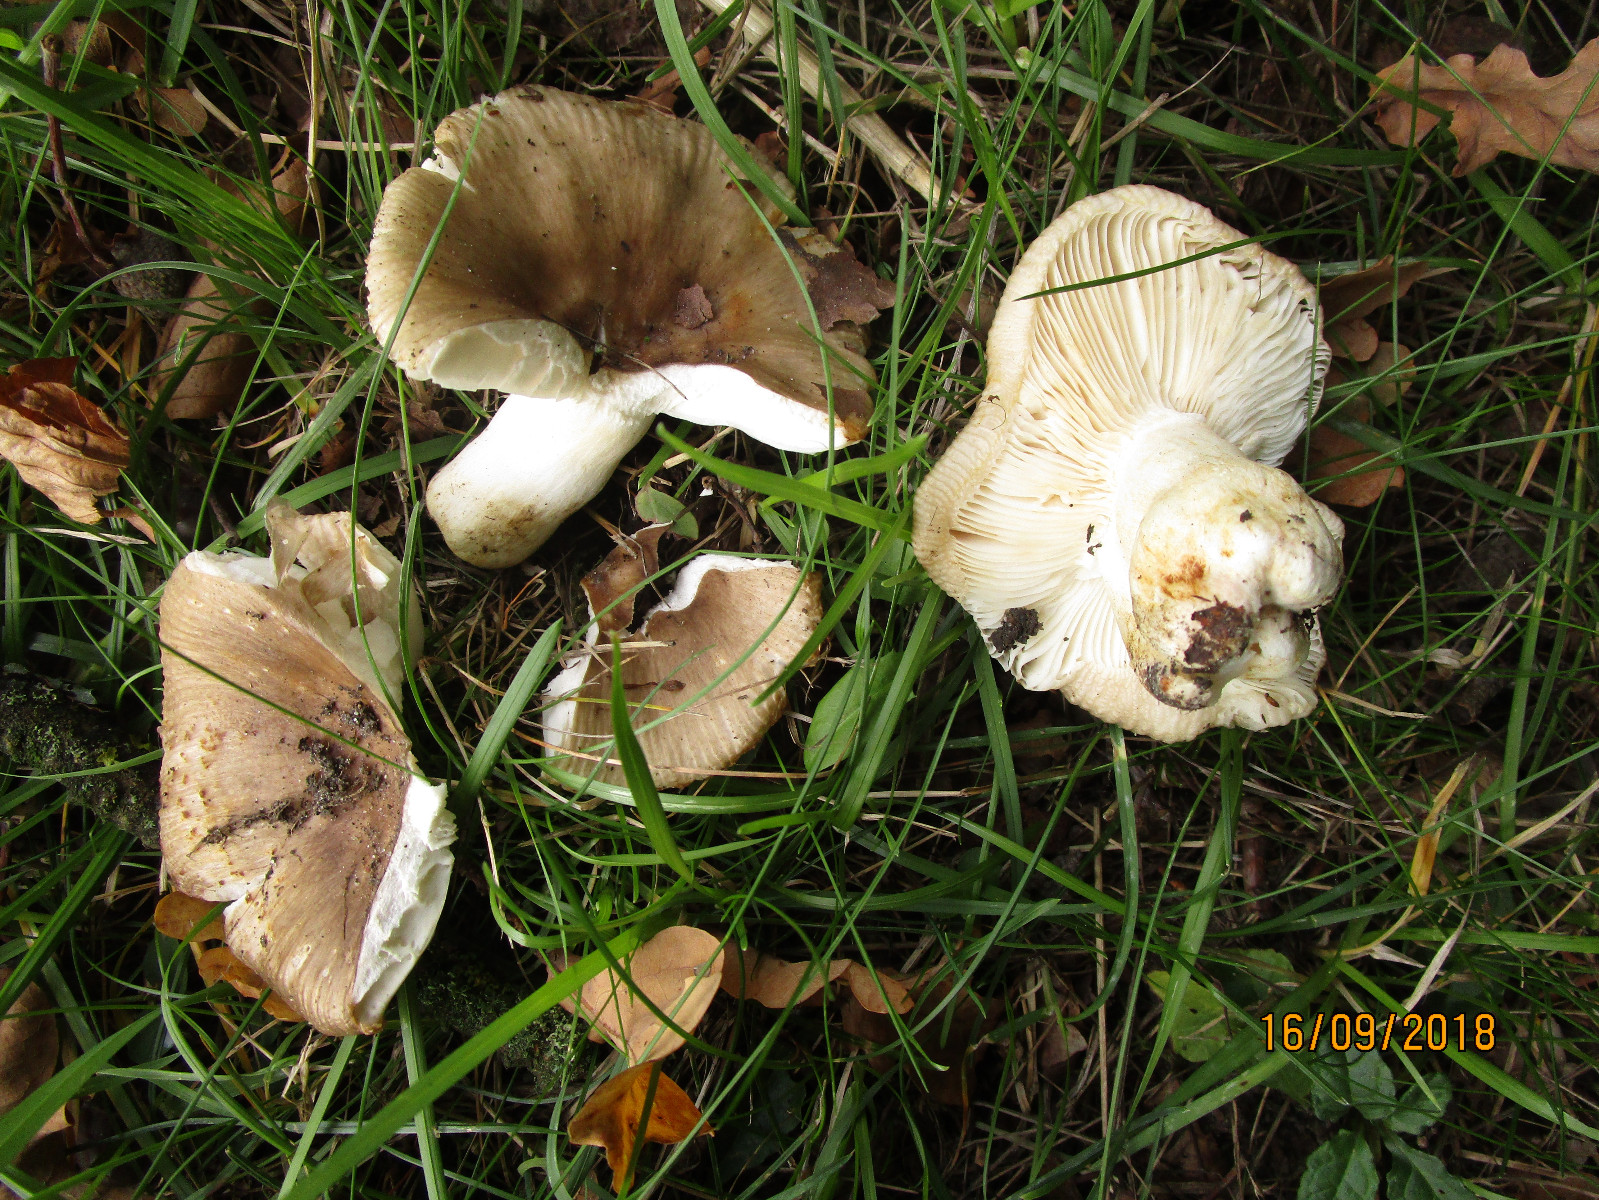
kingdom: Fungi
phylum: Basidiomycota
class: Agaricomycetes
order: Russulales
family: Russulaceae
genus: Russula
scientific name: Russula recondita
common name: mild kam-skørhat
